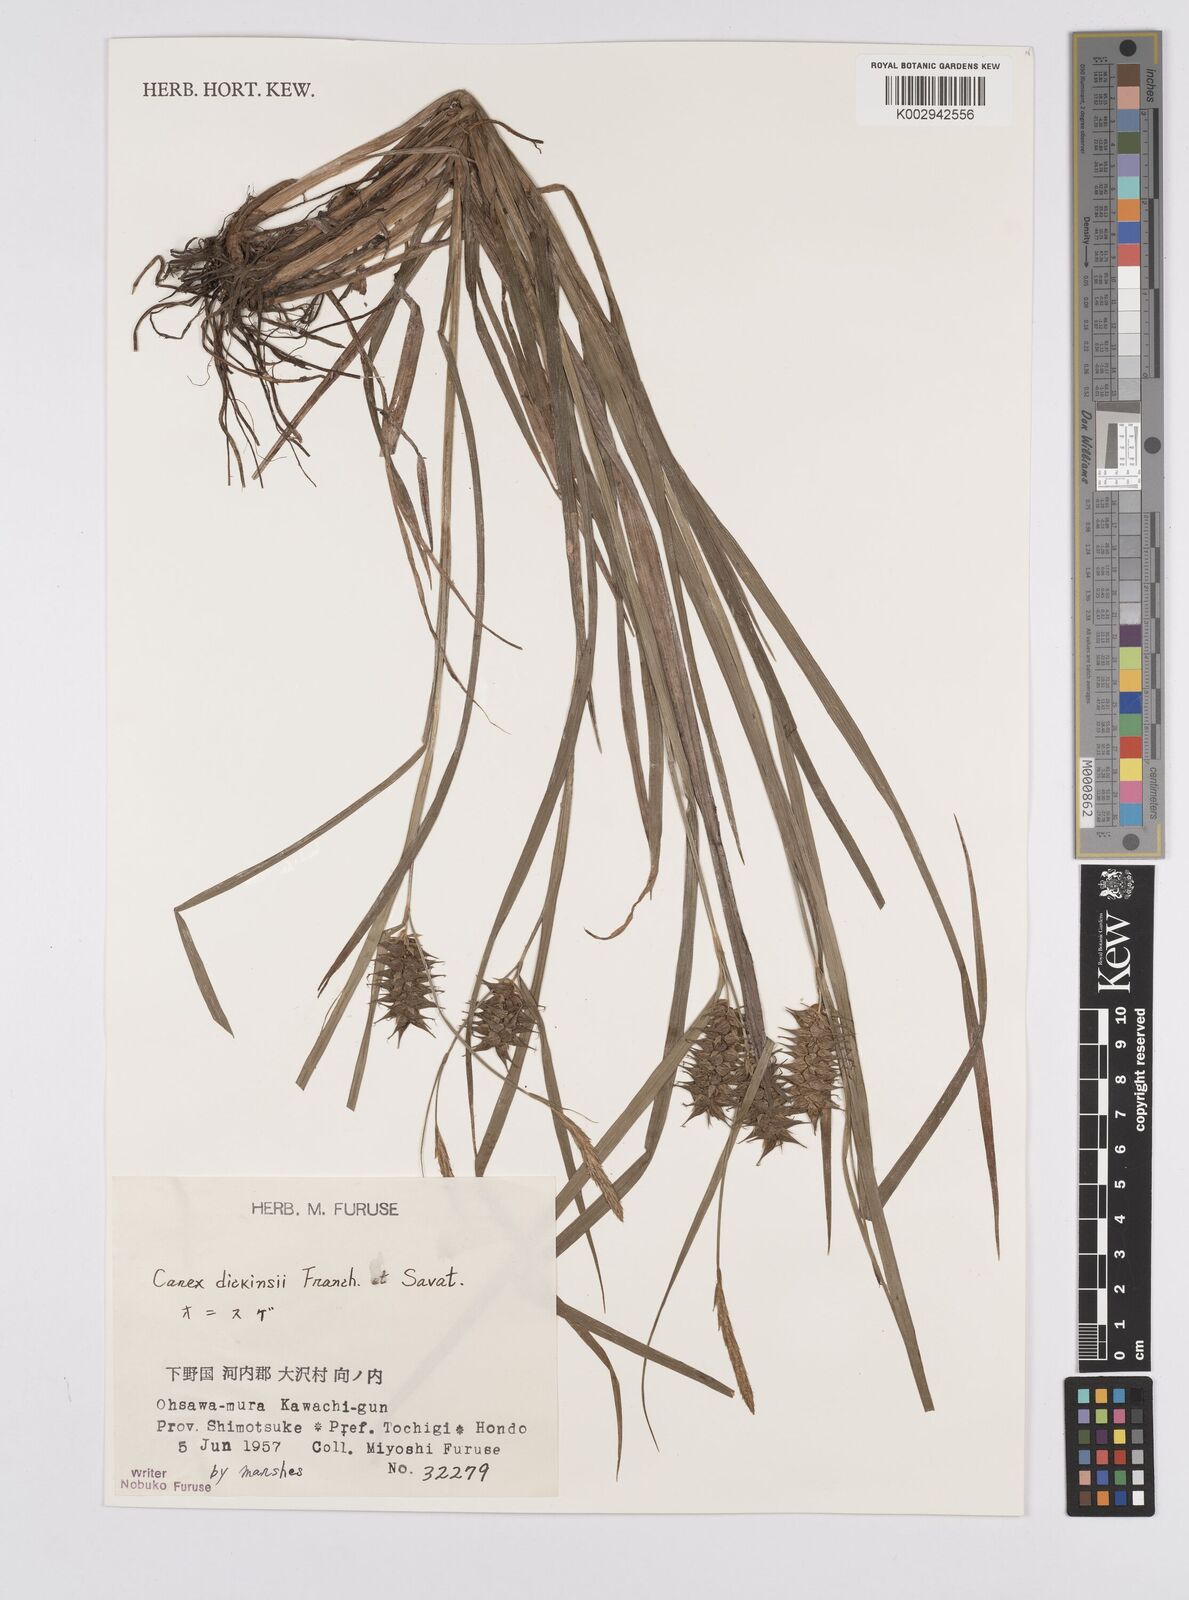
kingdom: Plantae
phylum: Tracheophyta
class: Liliopsida
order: Poales
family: Cyperaceae
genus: Carex
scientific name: Carex dickinsii
